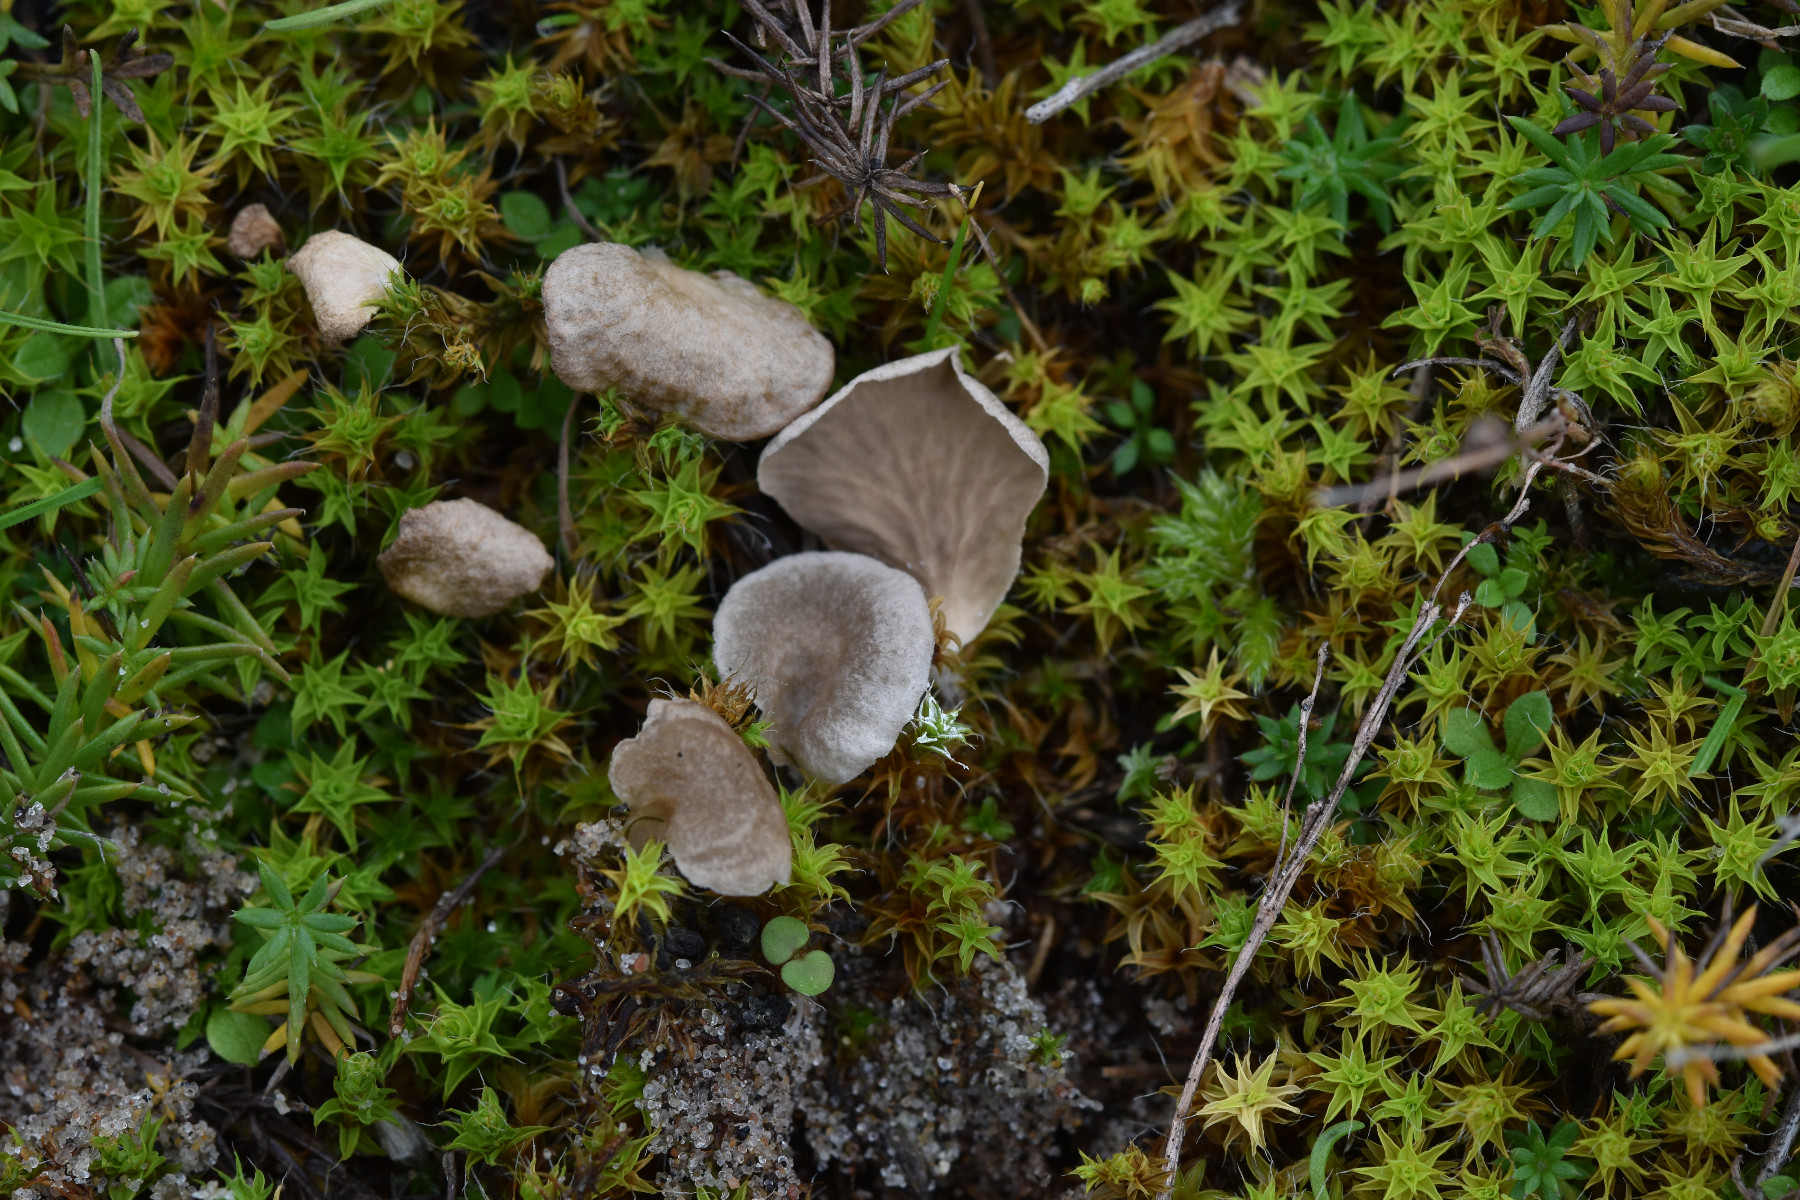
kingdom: Fungi
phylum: Basidiomycota
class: Agaricomycetes
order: Agaricales
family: Hygrophoraceae
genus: Arrhenia
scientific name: Arrhenia spathulata
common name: skæv fontænehat
